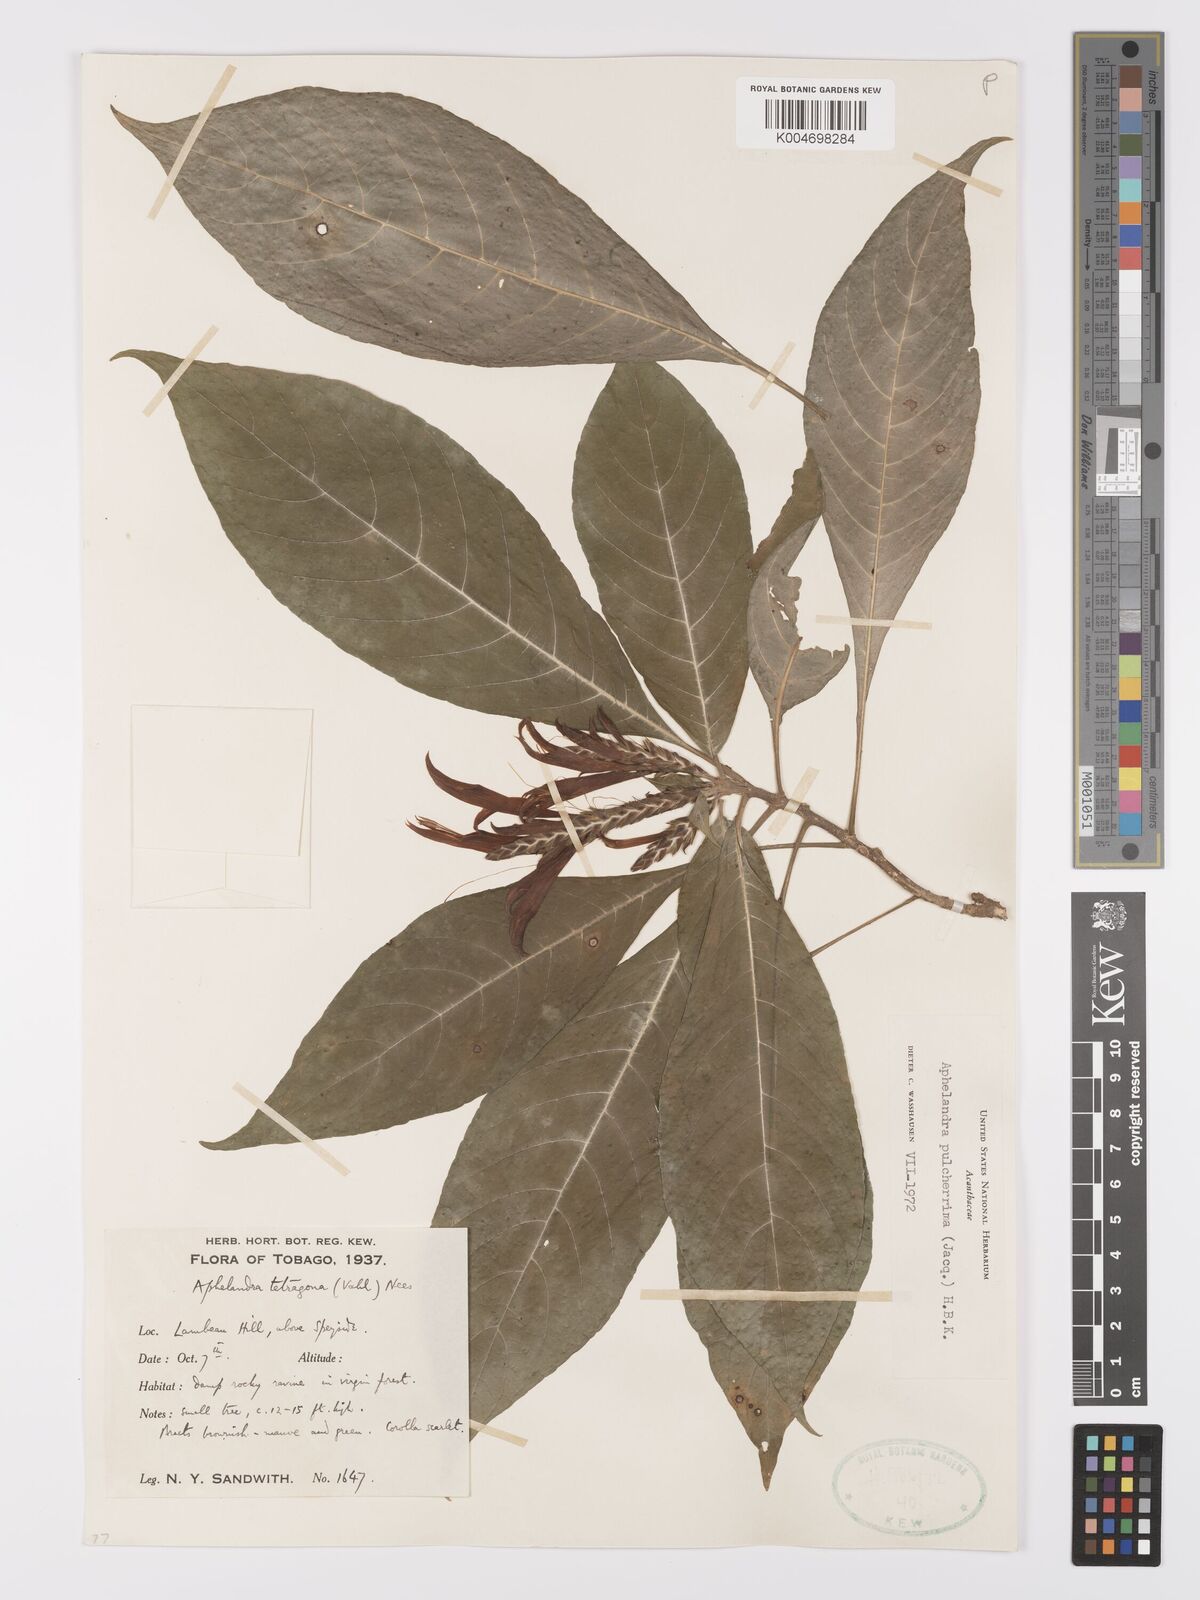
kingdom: Plantae
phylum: Tracheophyta
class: Magnoliopsida
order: Lamiales
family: Acanthaceae
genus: Aphelandra
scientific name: Aphelandra
